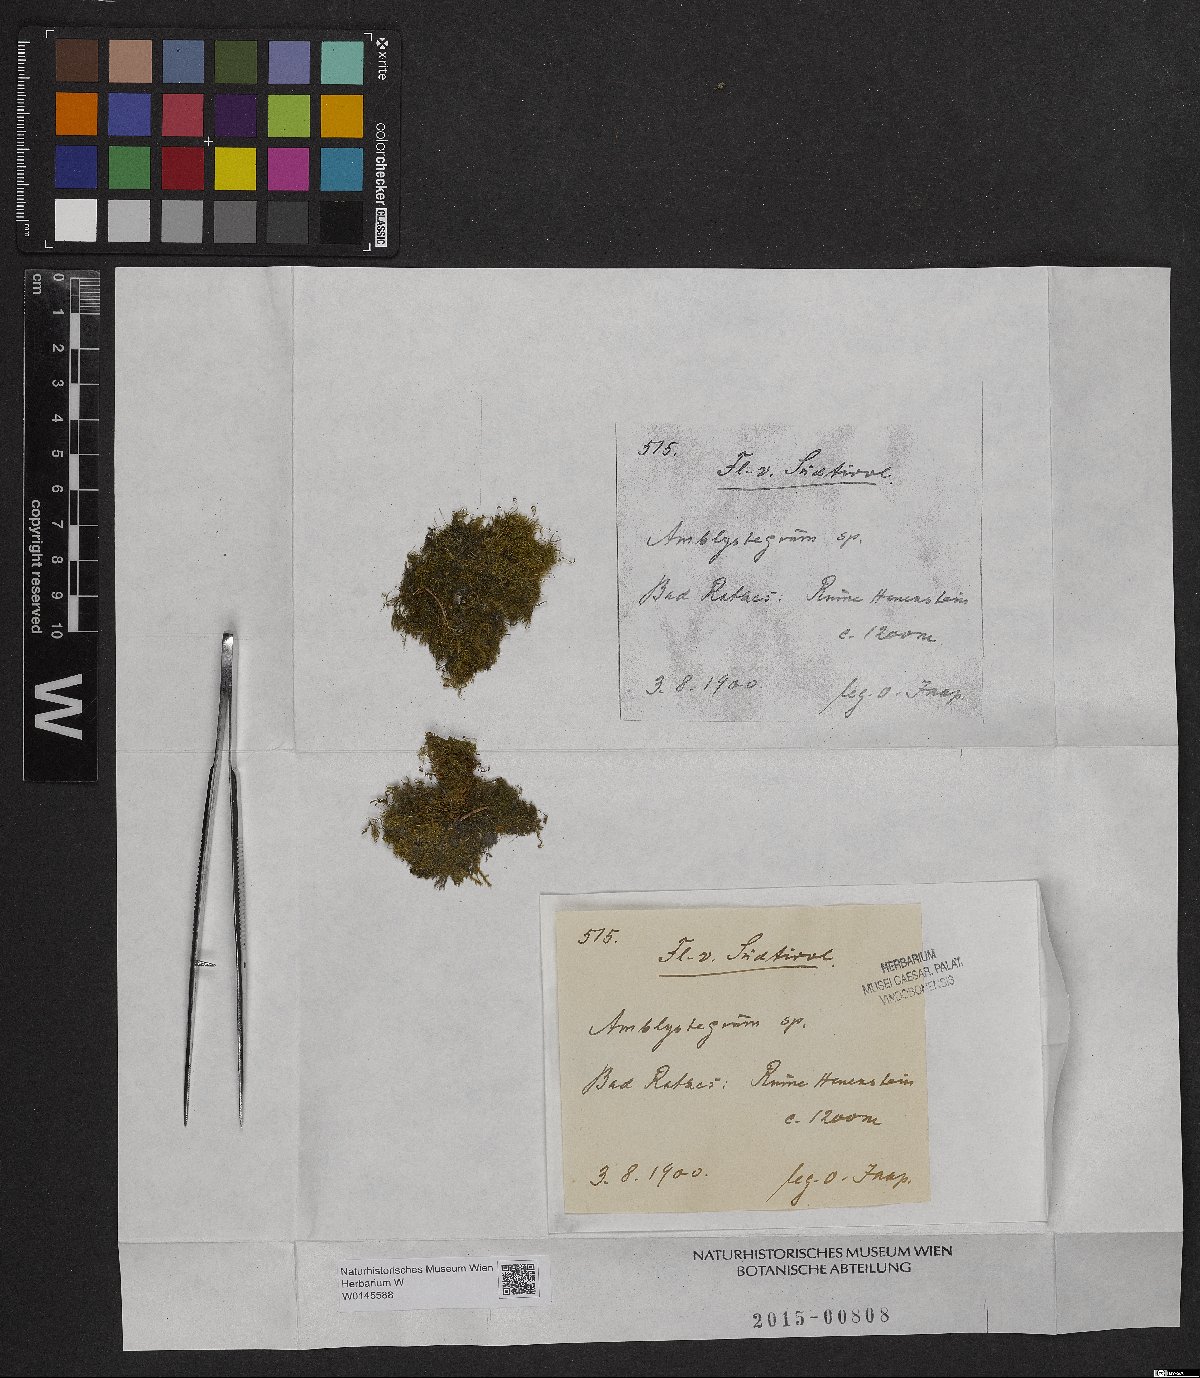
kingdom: Plantae
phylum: Bryophyta
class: Bryopsida
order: Hypnales
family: Amblystegiaceae
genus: Amblystegium
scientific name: Amblystegium
